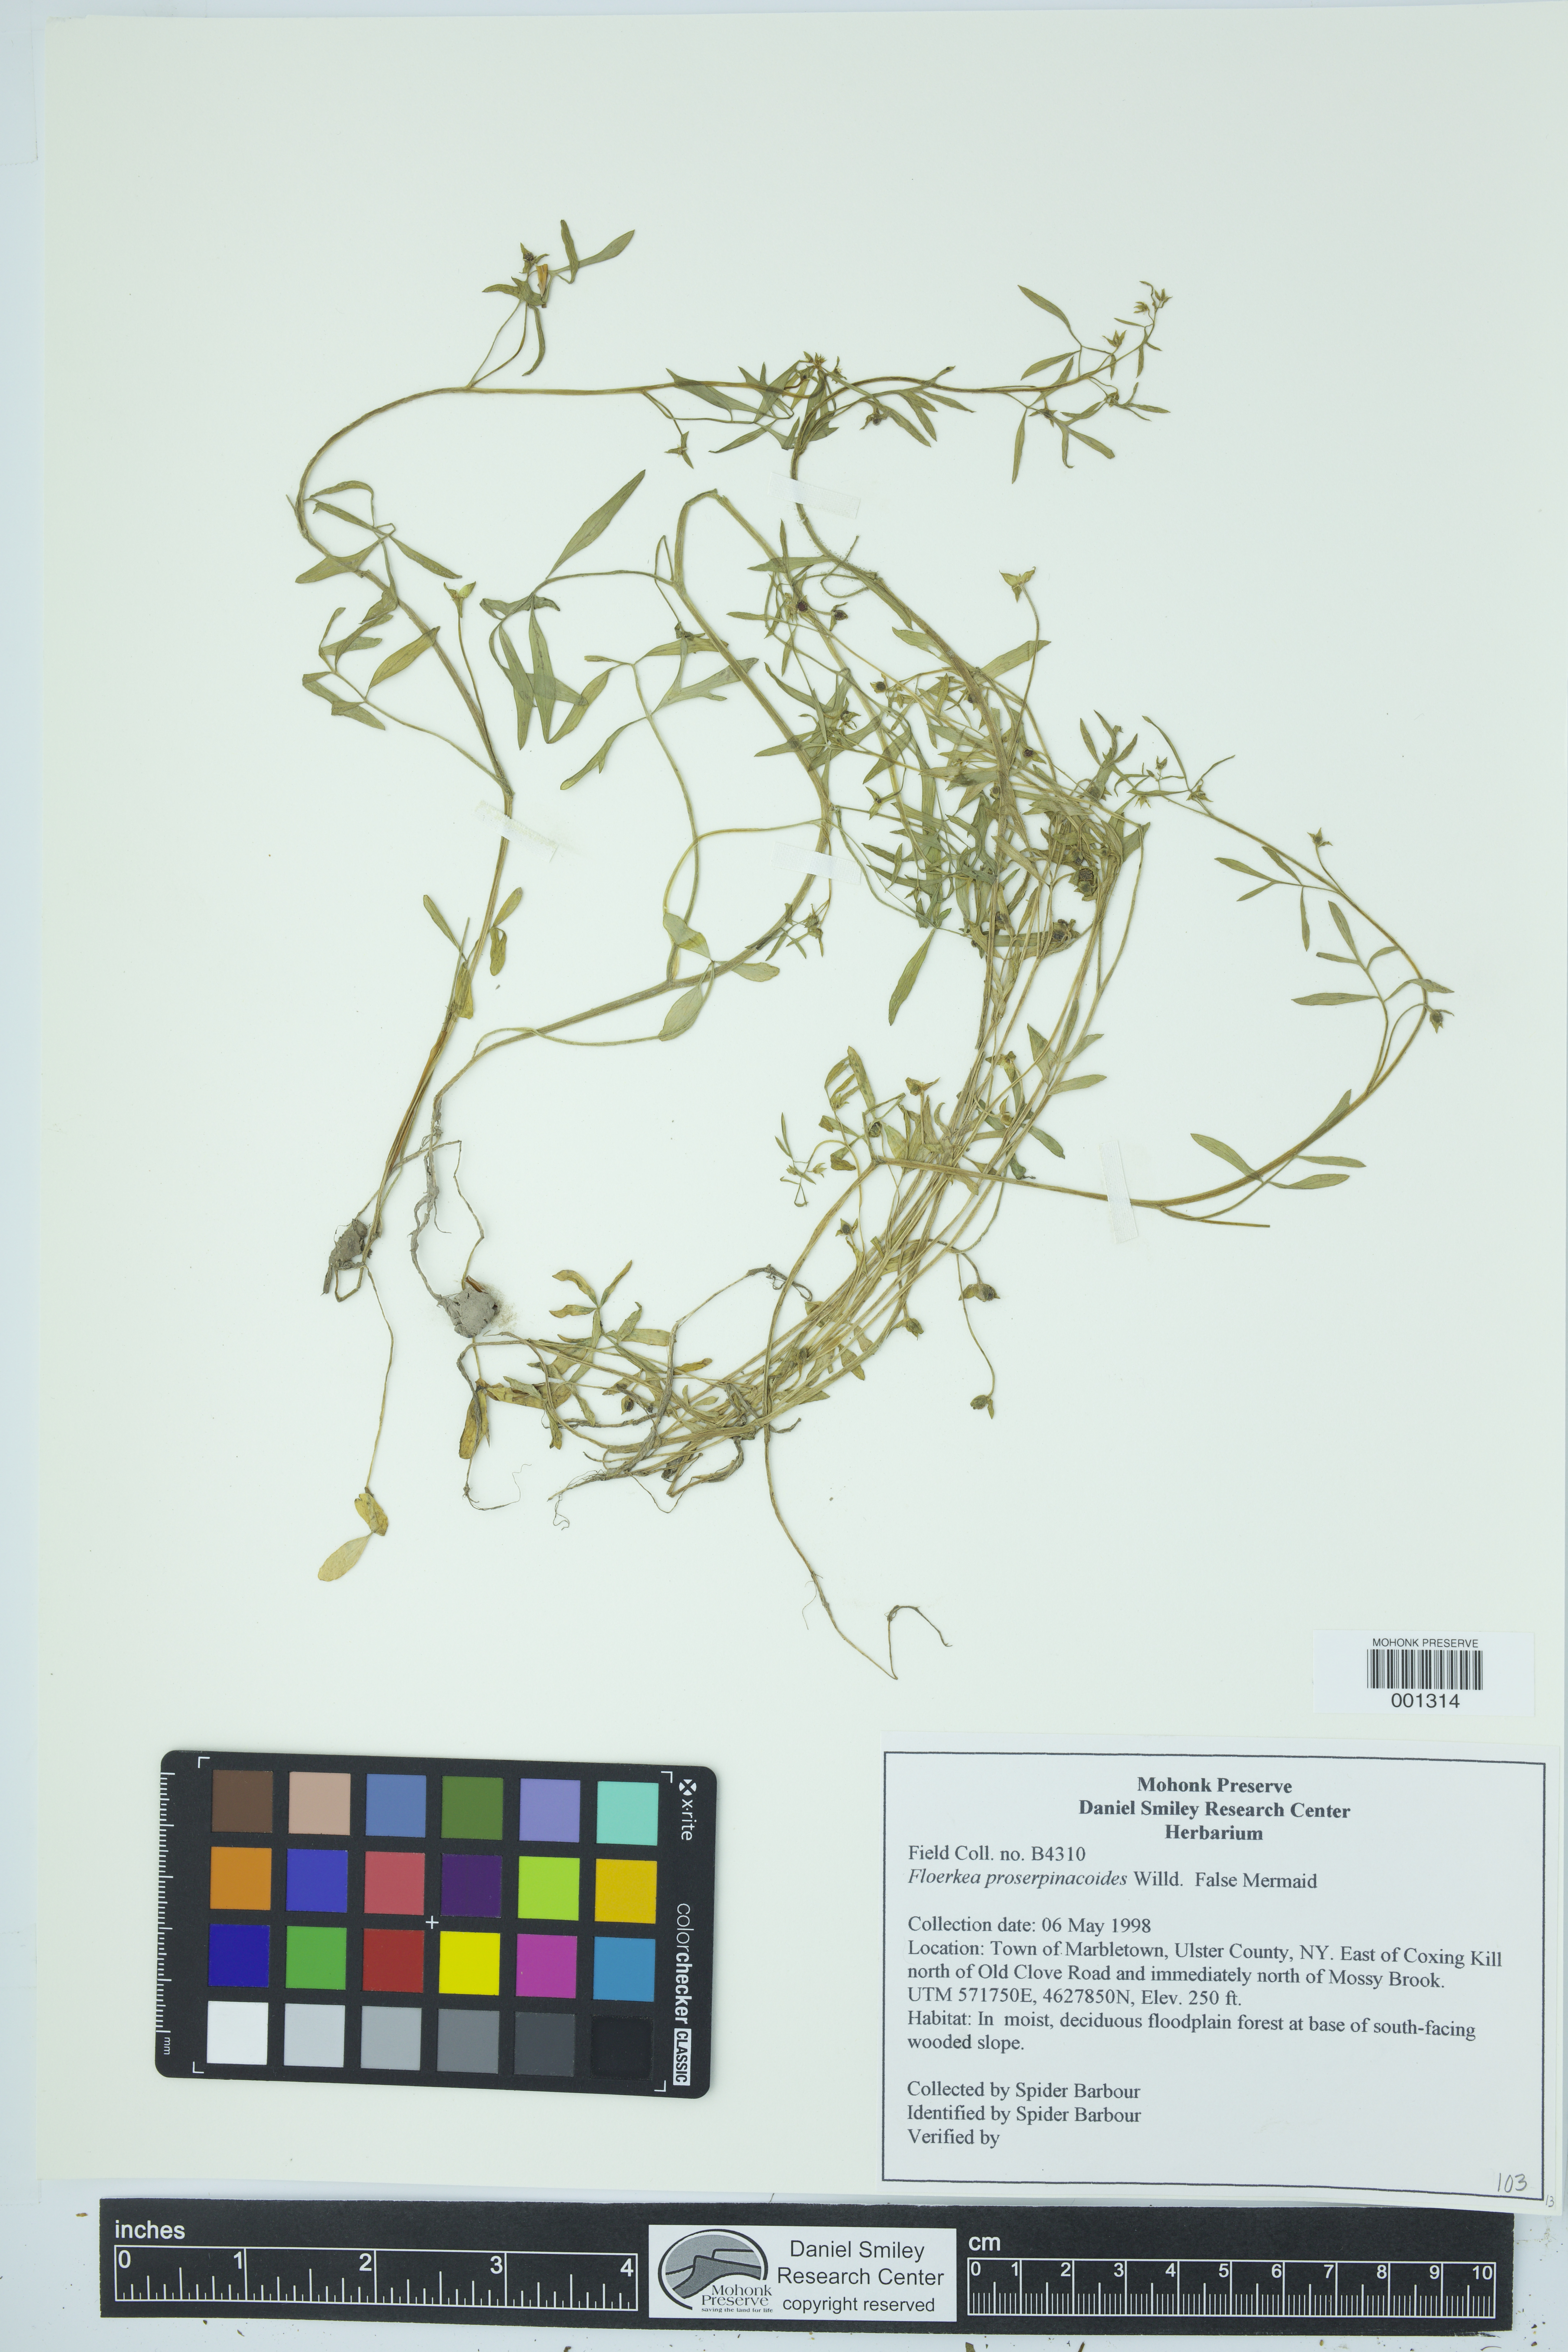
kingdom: Plantae
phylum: Tracheophyta
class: Magnoliopsida
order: Brassicales
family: Limnanthaceae
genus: Floerkea
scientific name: Floerkea proserpinacoides
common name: False mermaid
